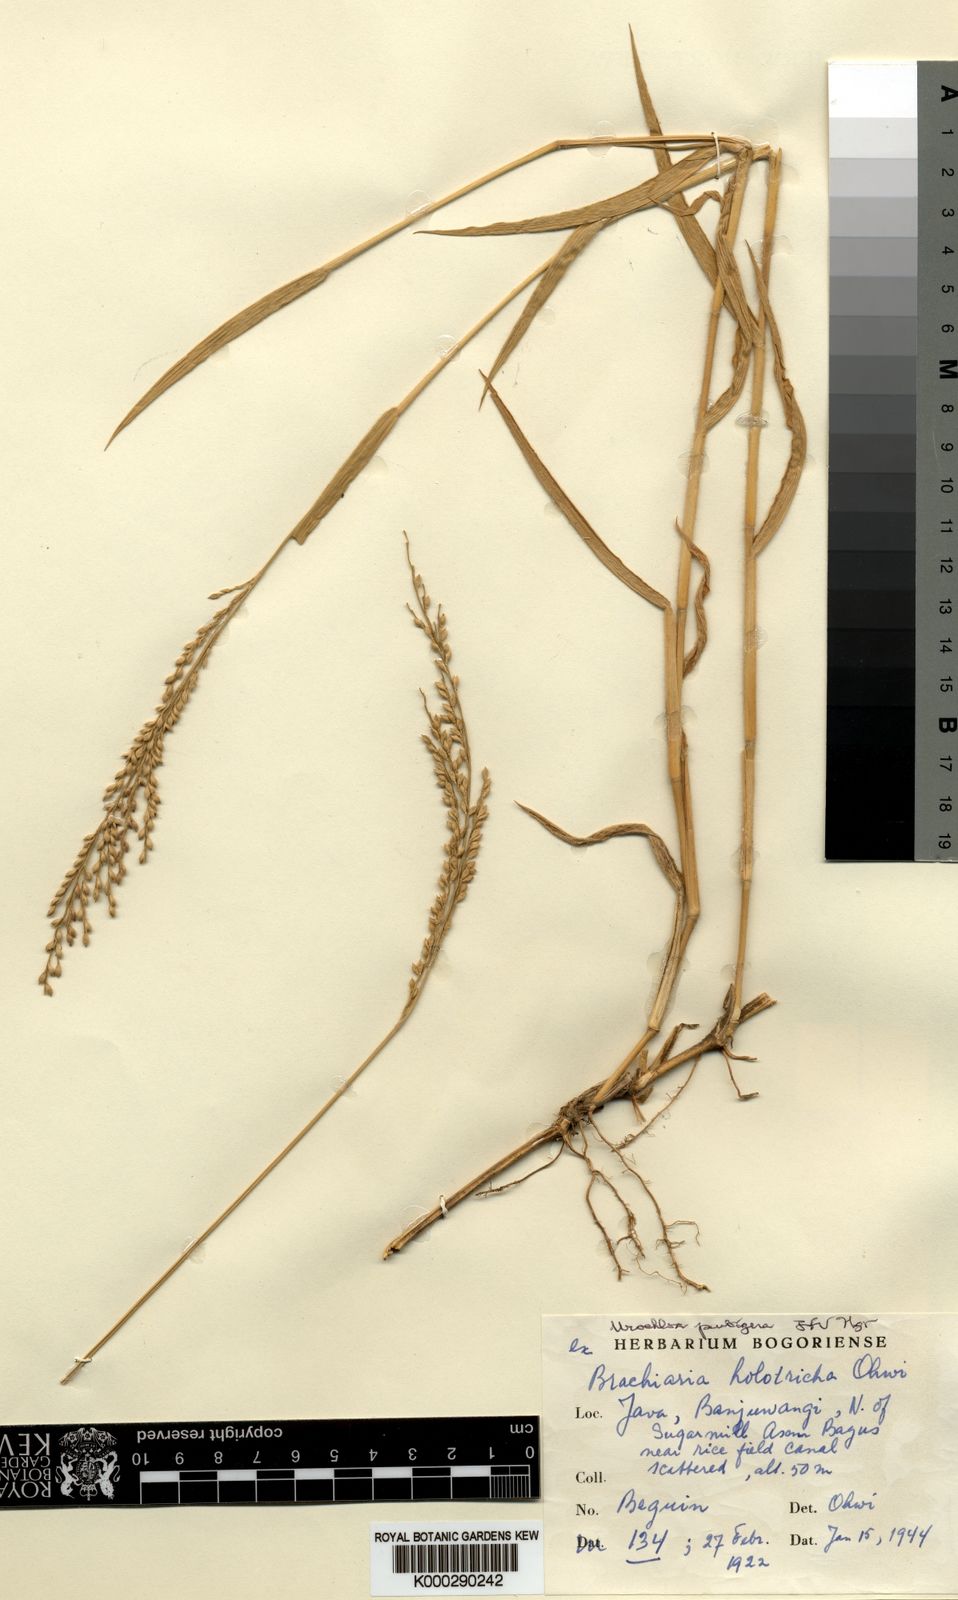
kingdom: Plantae
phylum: Tracheophyta
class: Liliopsida
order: Poales
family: Poaceae
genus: Urochloa
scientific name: Urochloa pubigera
